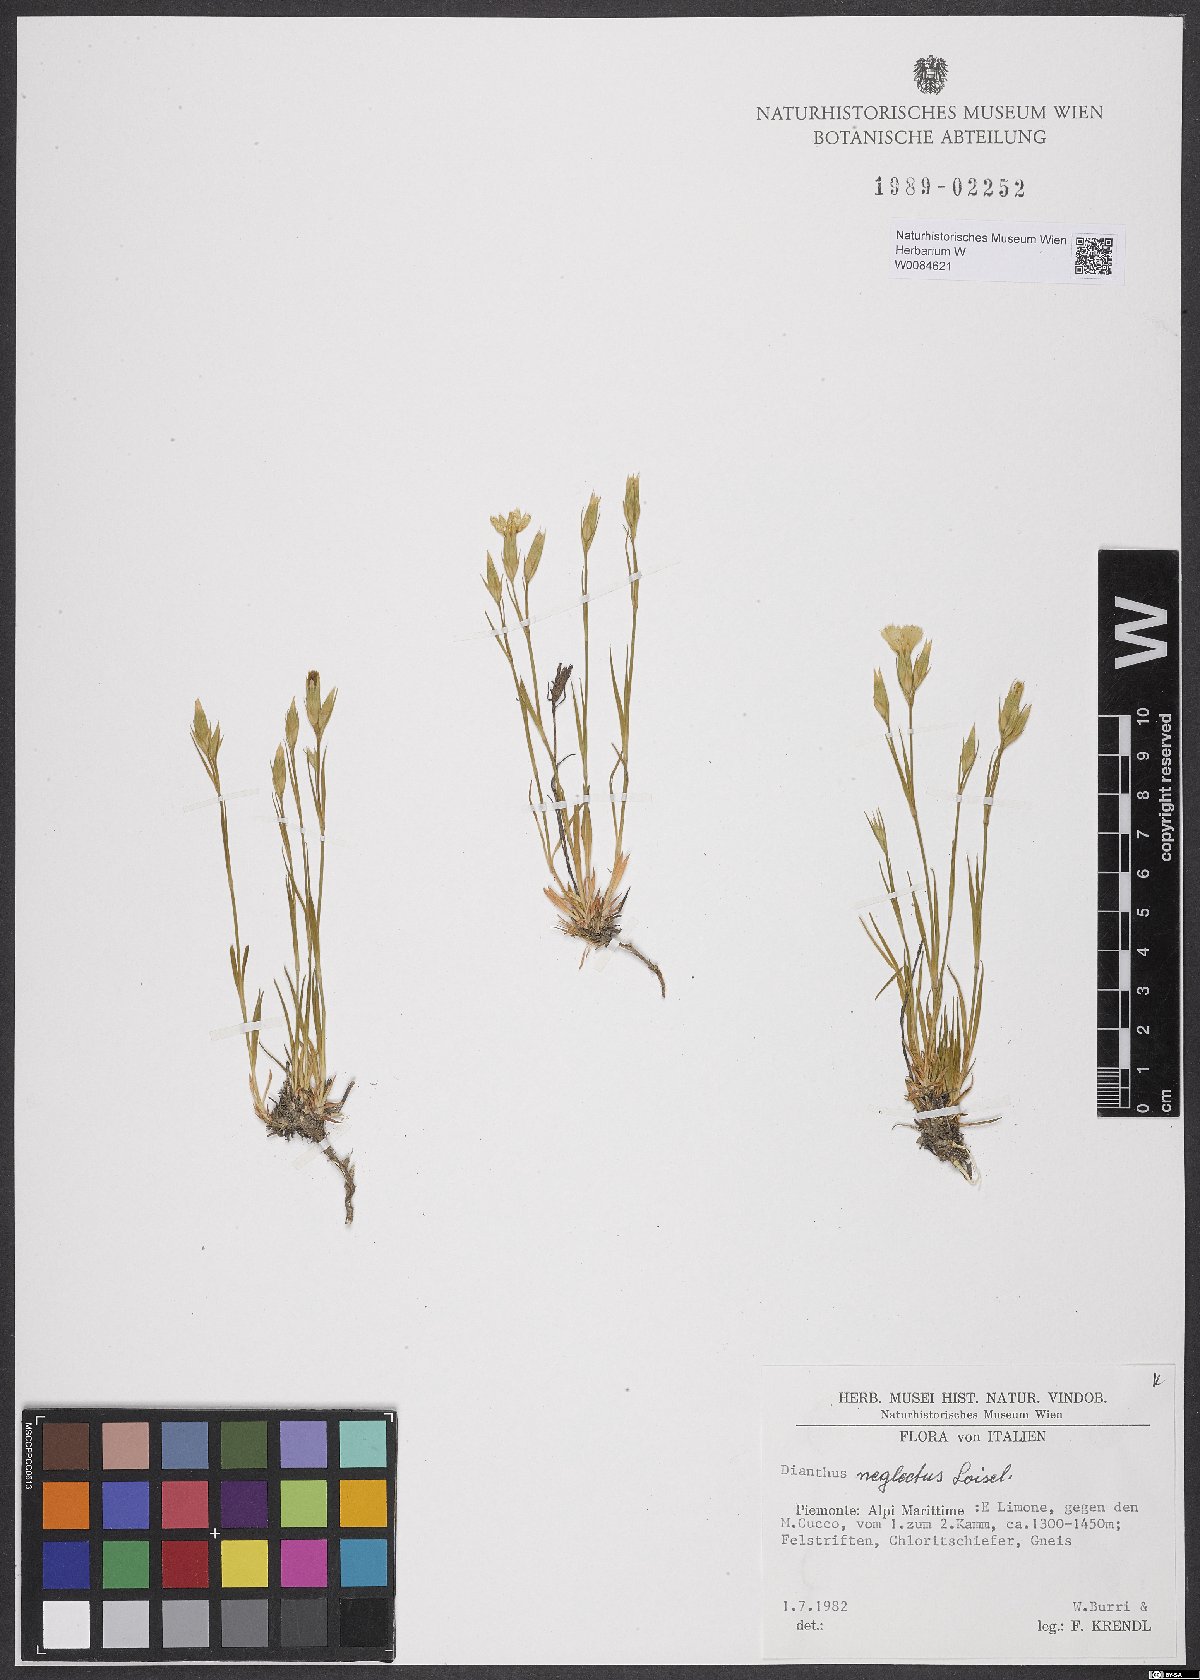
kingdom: Plantae
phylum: Tracheophyta
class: Magnoliopsida
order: Caryophyllales
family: Caryophyllaceae
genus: Dianthus
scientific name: Dianthus seguieri
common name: Ragged pink
